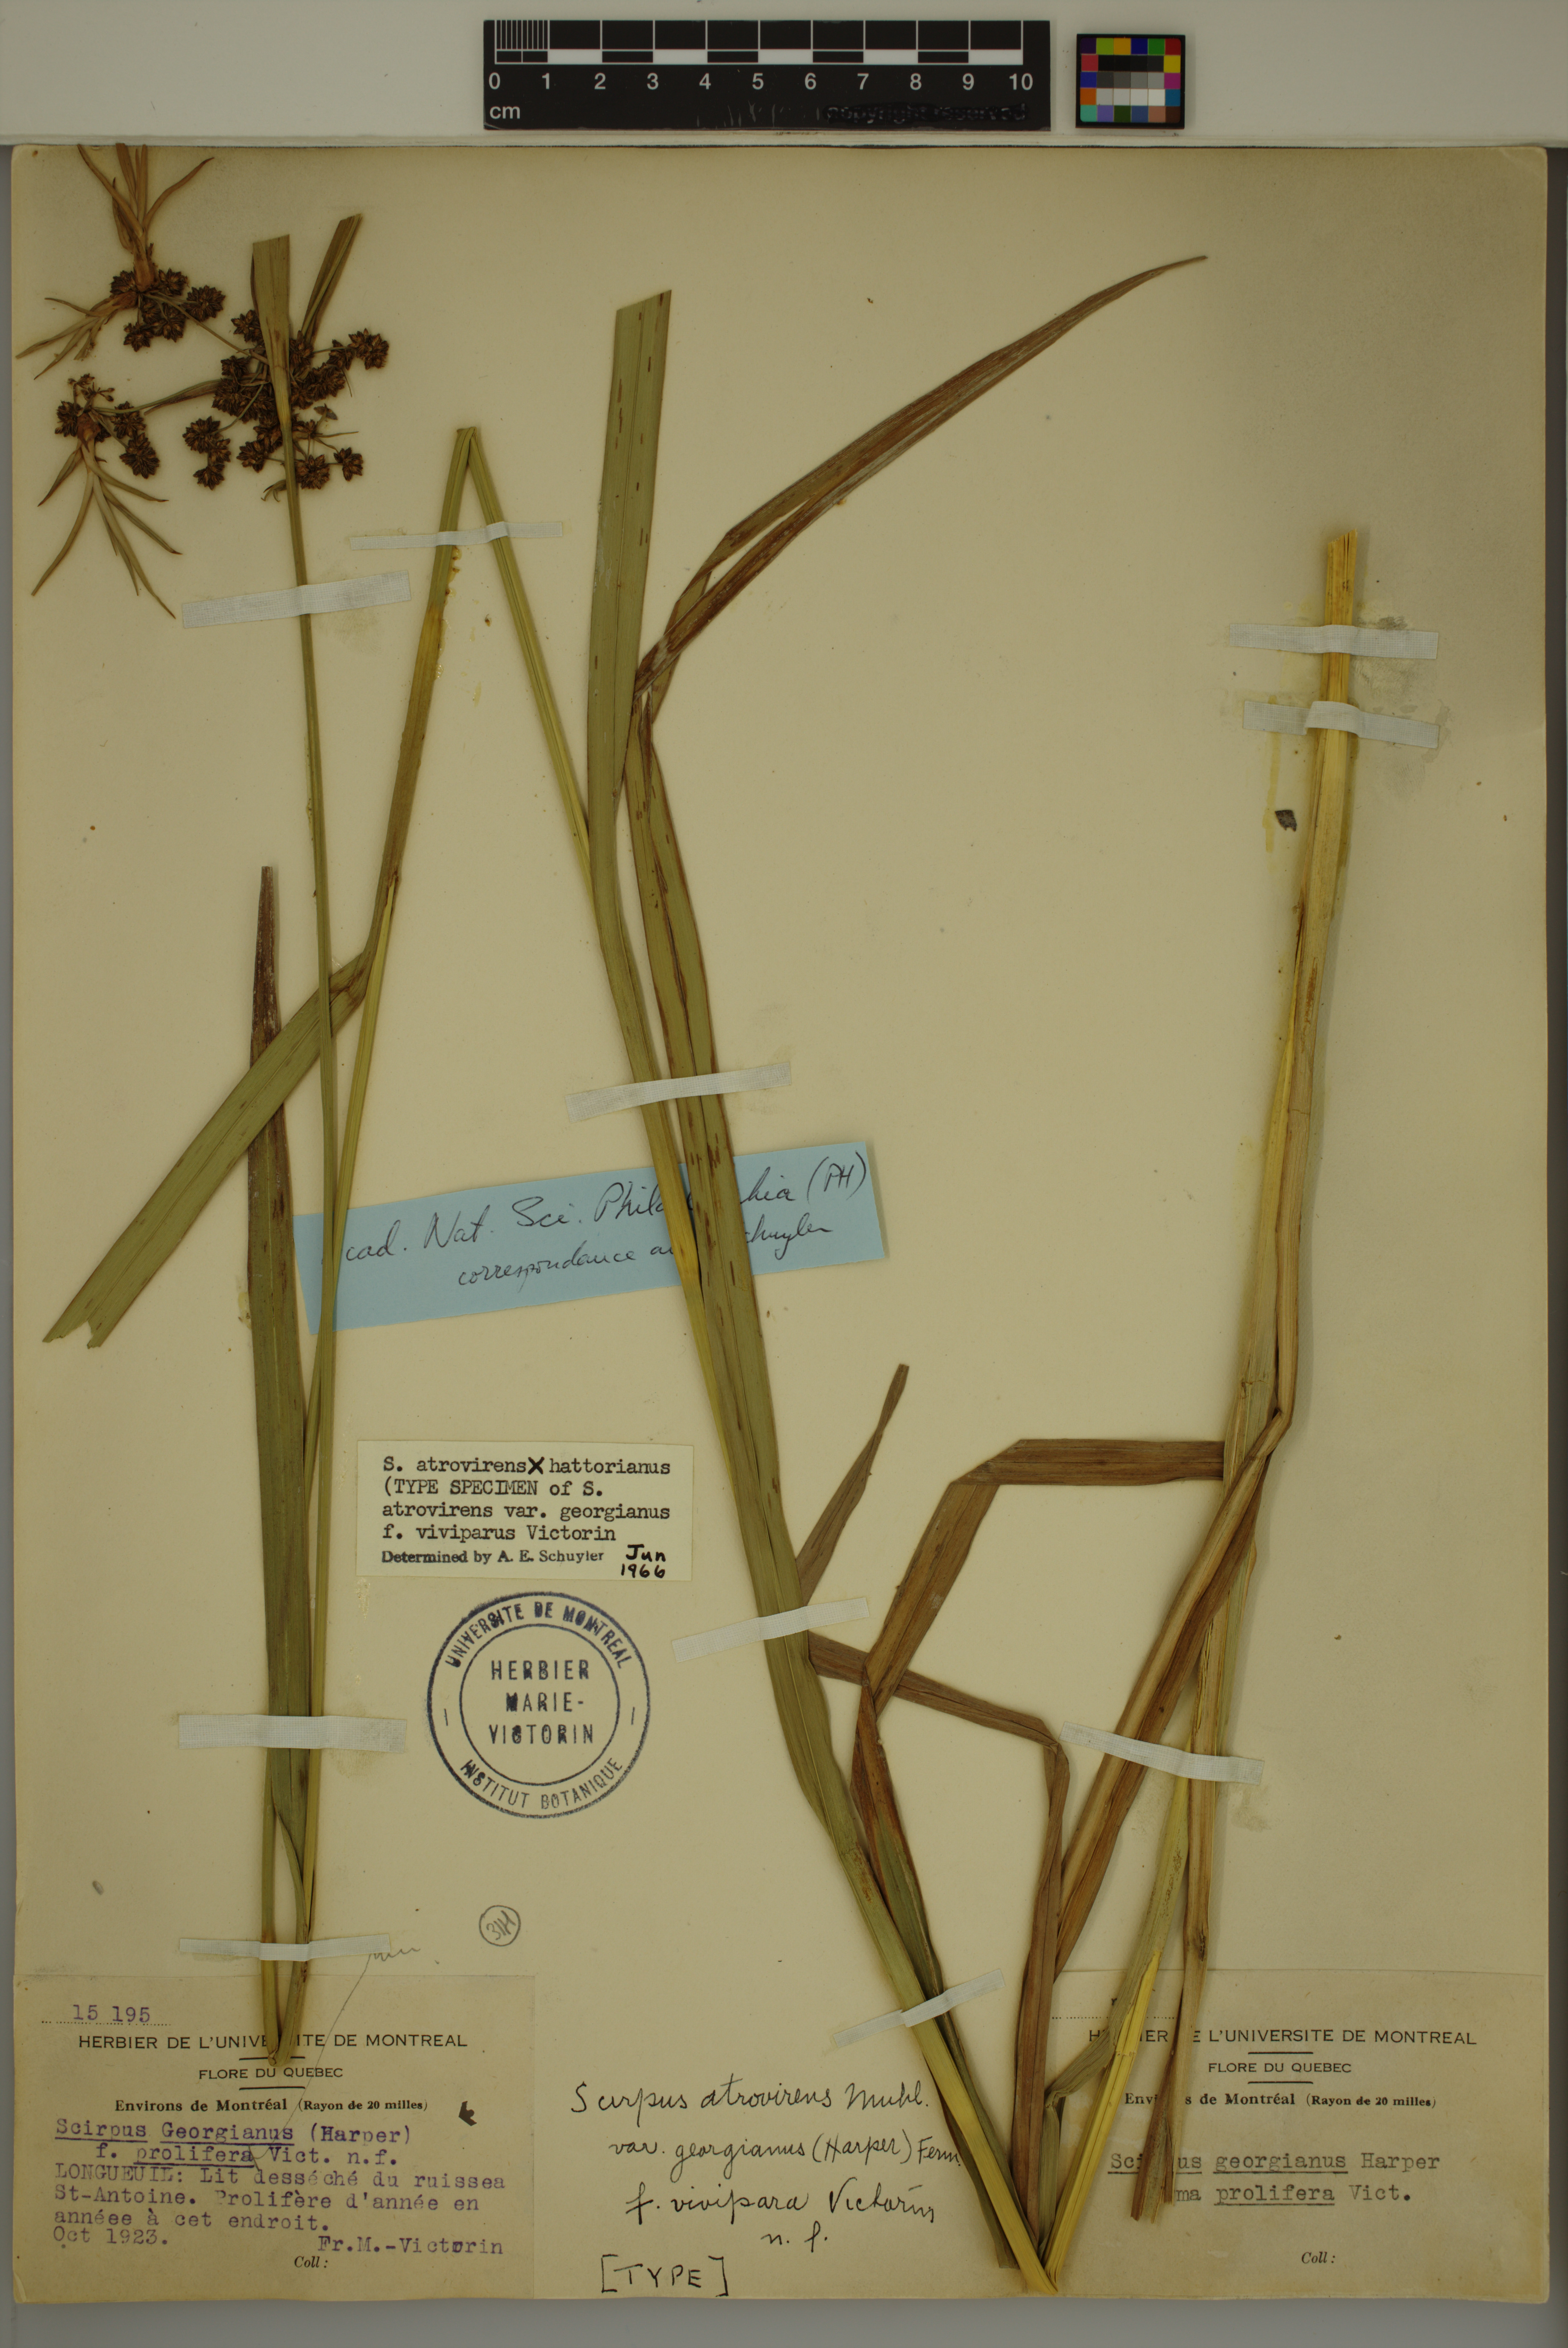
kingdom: Plantae
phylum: Tracheophyta
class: Liliopsida
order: Poales
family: Cyperaceae
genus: Scirpus
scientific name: Scirpus hattorianus
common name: Early dark-green bulrush
